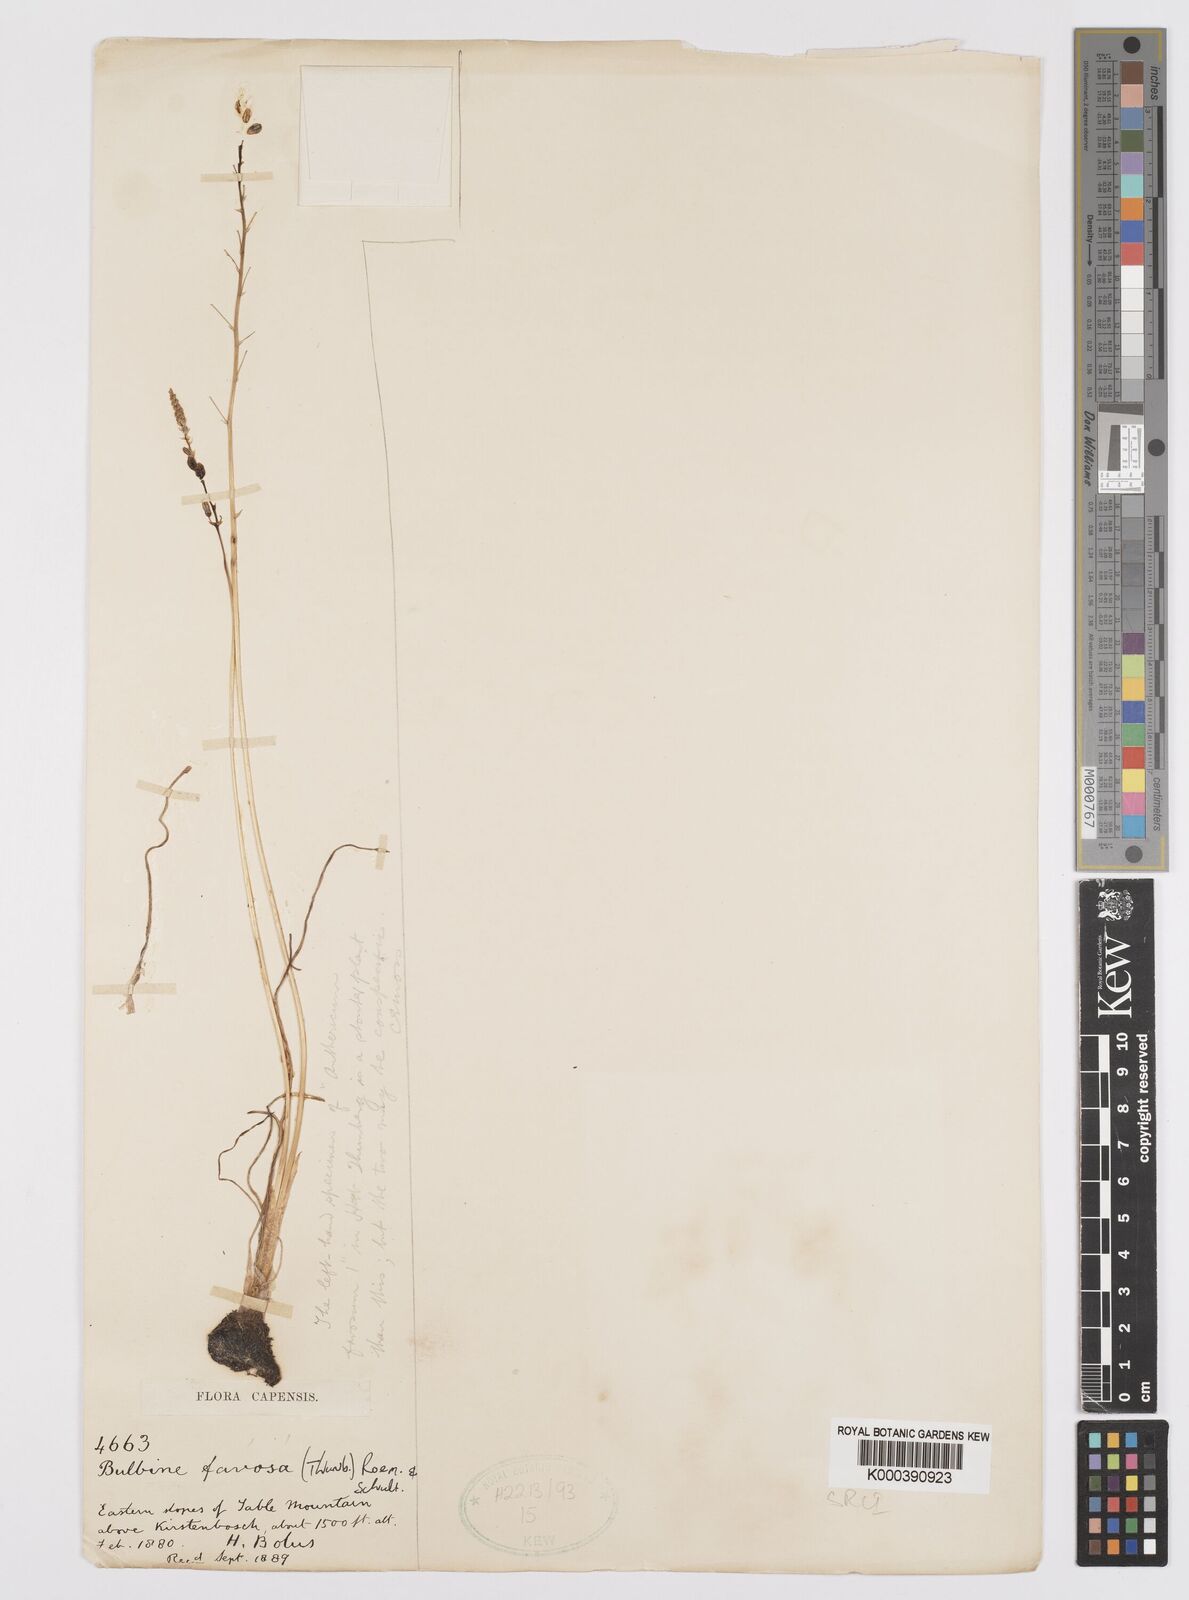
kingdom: Plantae
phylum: Tracheophyta
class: Liliopsida
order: Asparagales
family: Asphodelaceae
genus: Bulbine
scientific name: Bulbine favosa
